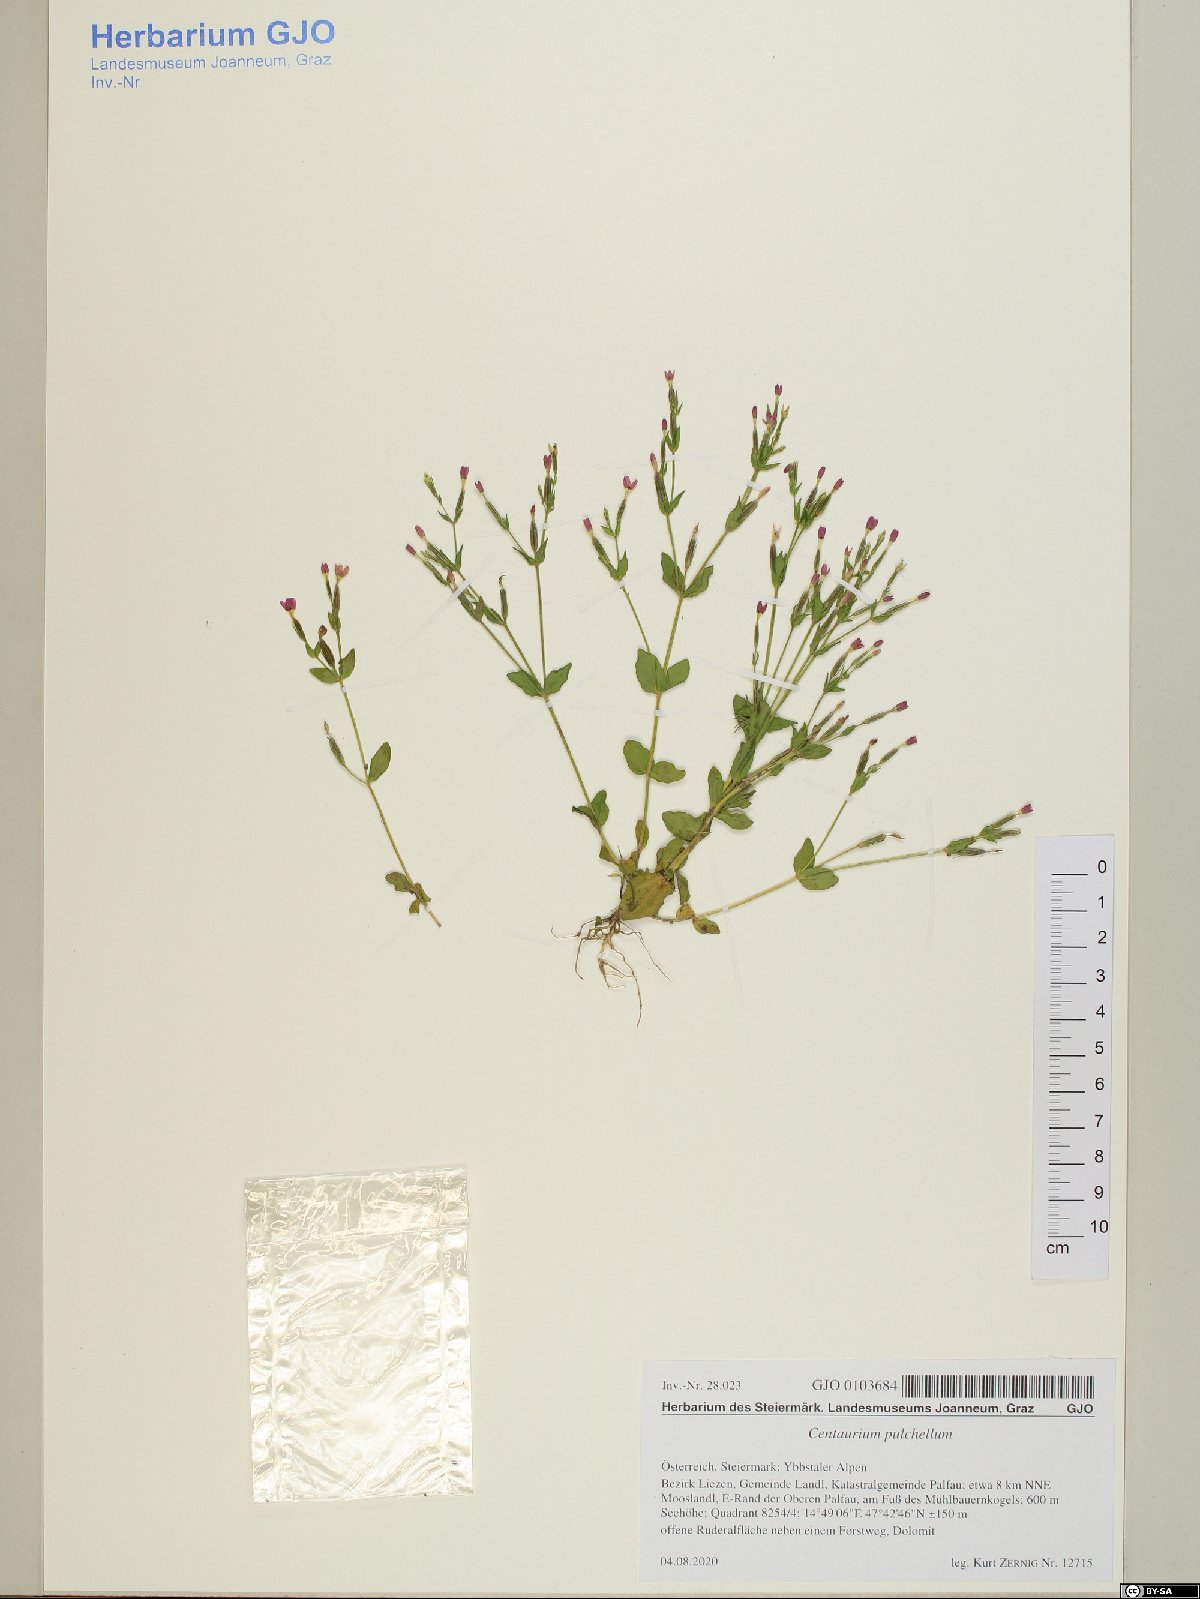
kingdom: Plantae
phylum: Tracheophyta
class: Magnoliopsida
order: Gentianales
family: Gentianaceae
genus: Centaurium
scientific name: Centaurium pulchellum
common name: Lesser centaury
